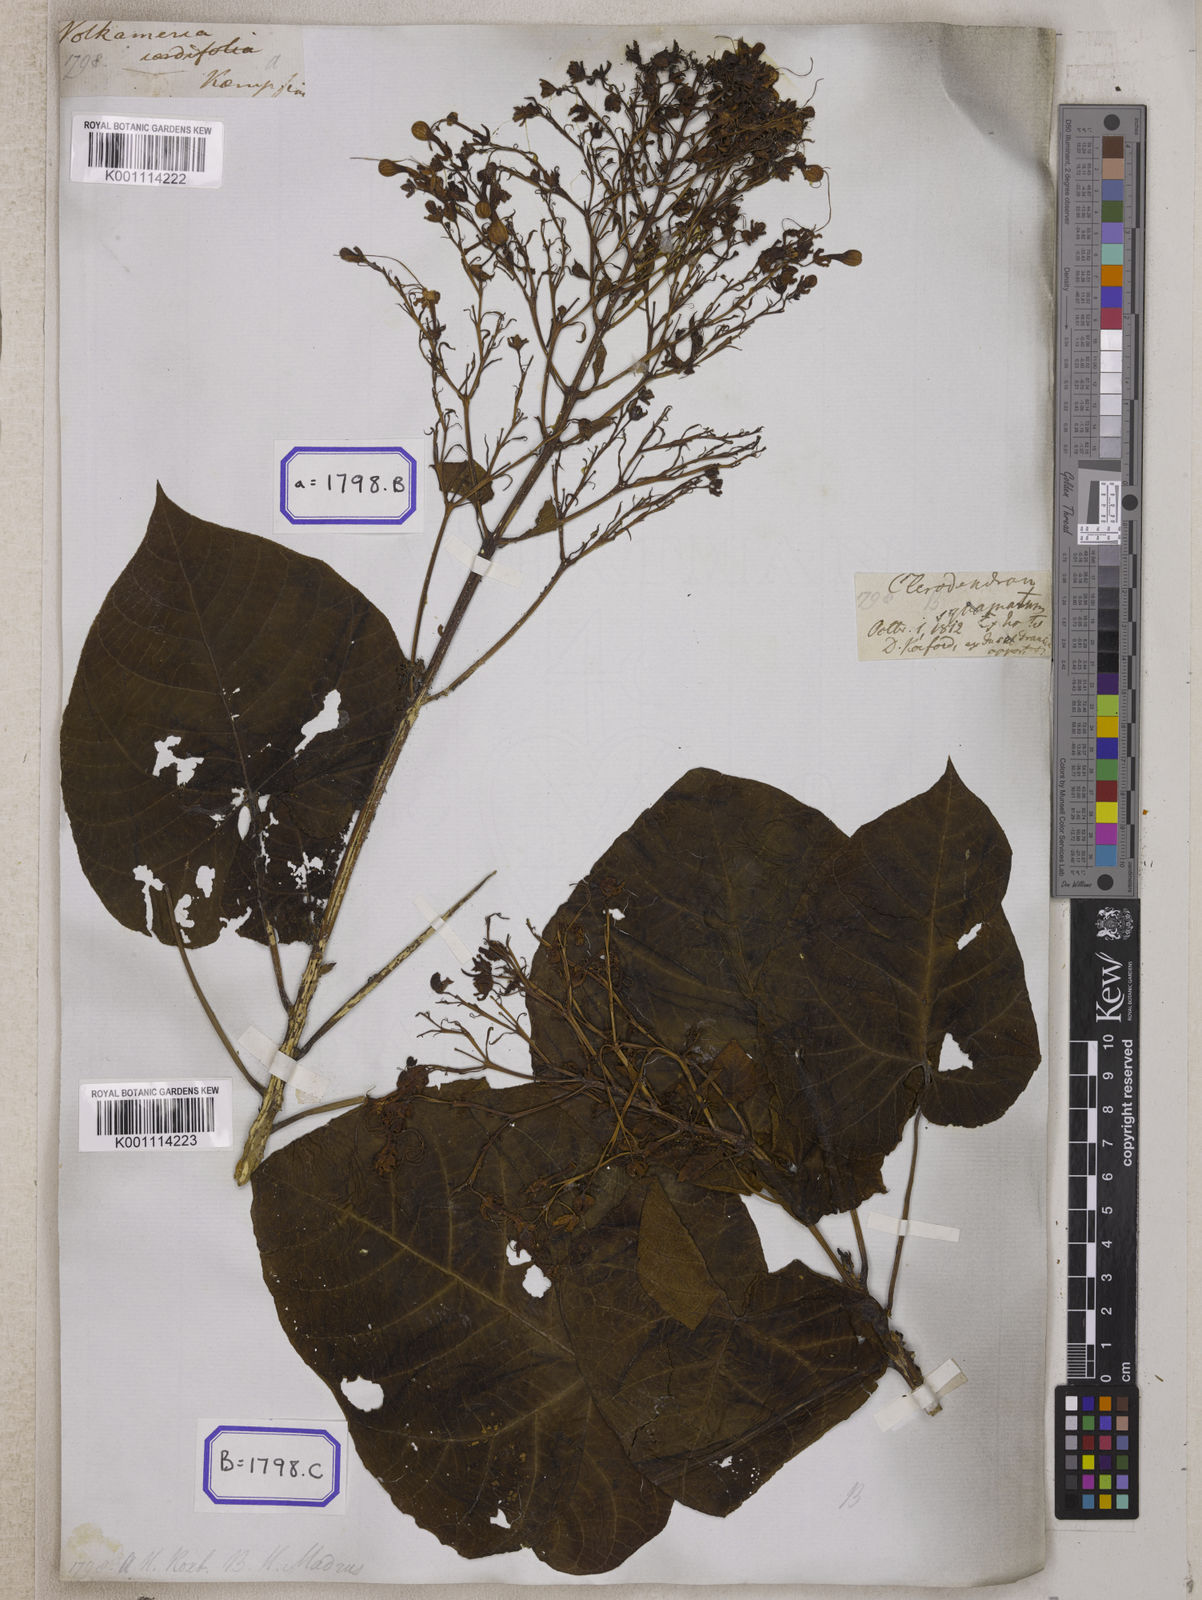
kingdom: Plantae
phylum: Tracheophyta
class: Magnoliopsida
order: Lamiales
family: Lamiaceae
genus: Clerodendrum
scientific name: Clerodendrum japonicum
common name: Japanese glorybower
